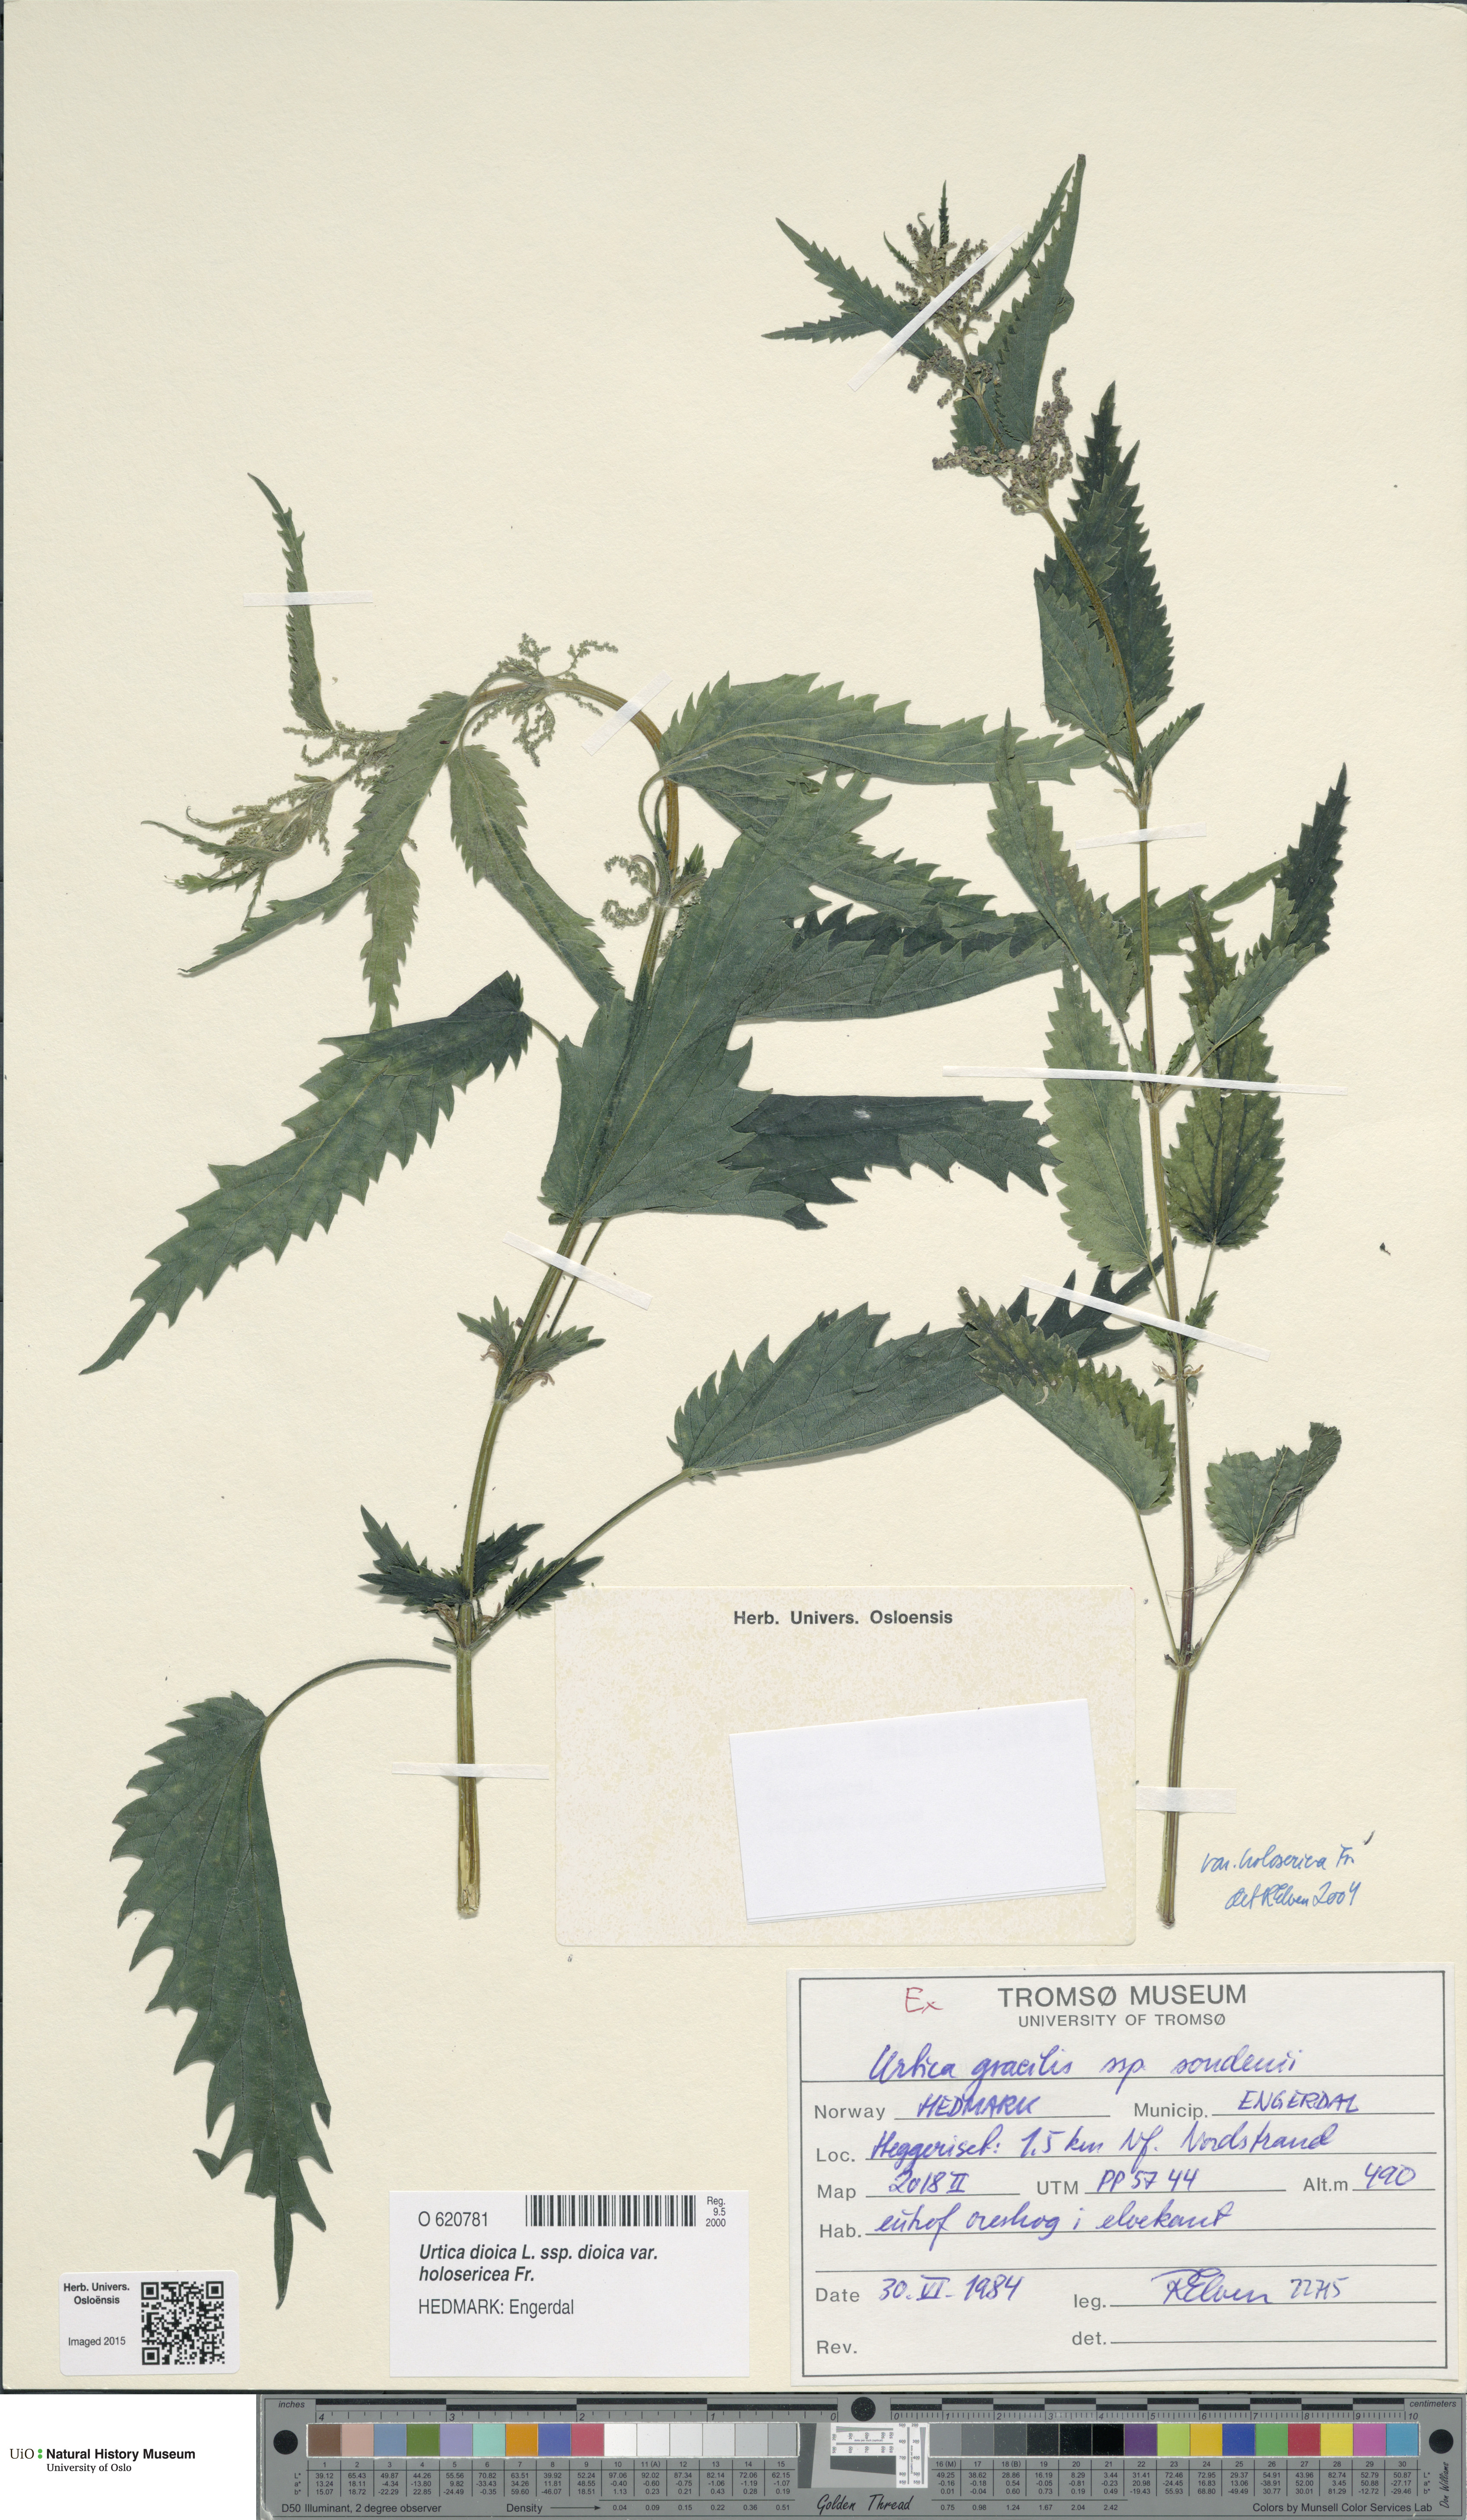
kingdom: Plantae
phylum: Tracheophyta
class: Magnoliopsida
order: Rosales
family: Urticaceae
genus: Urtica
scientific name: Urtica dioica
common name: Common nettle
